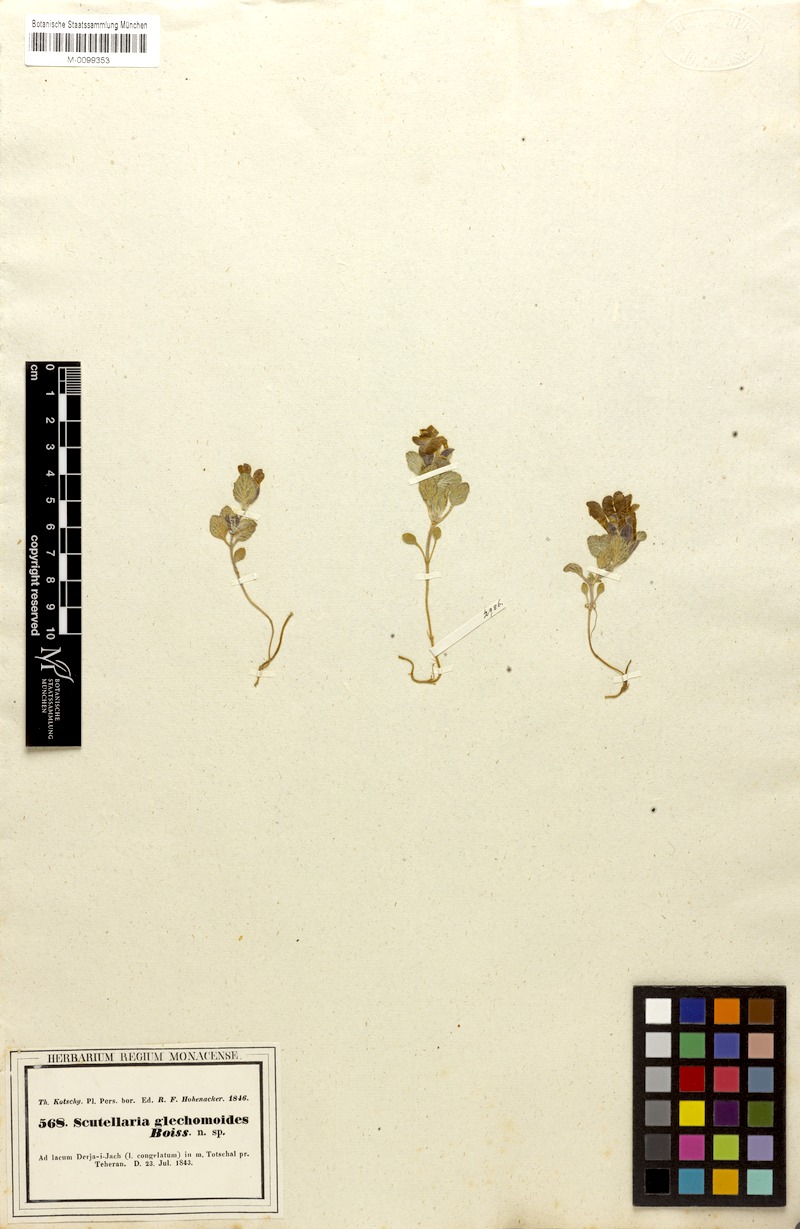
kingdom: Plantae
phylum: Tracheophyta
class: Magnoliopsida
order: Lamiales
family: Lamiaceae
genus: Scutellaria
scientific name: Scutellaria glechomoides
